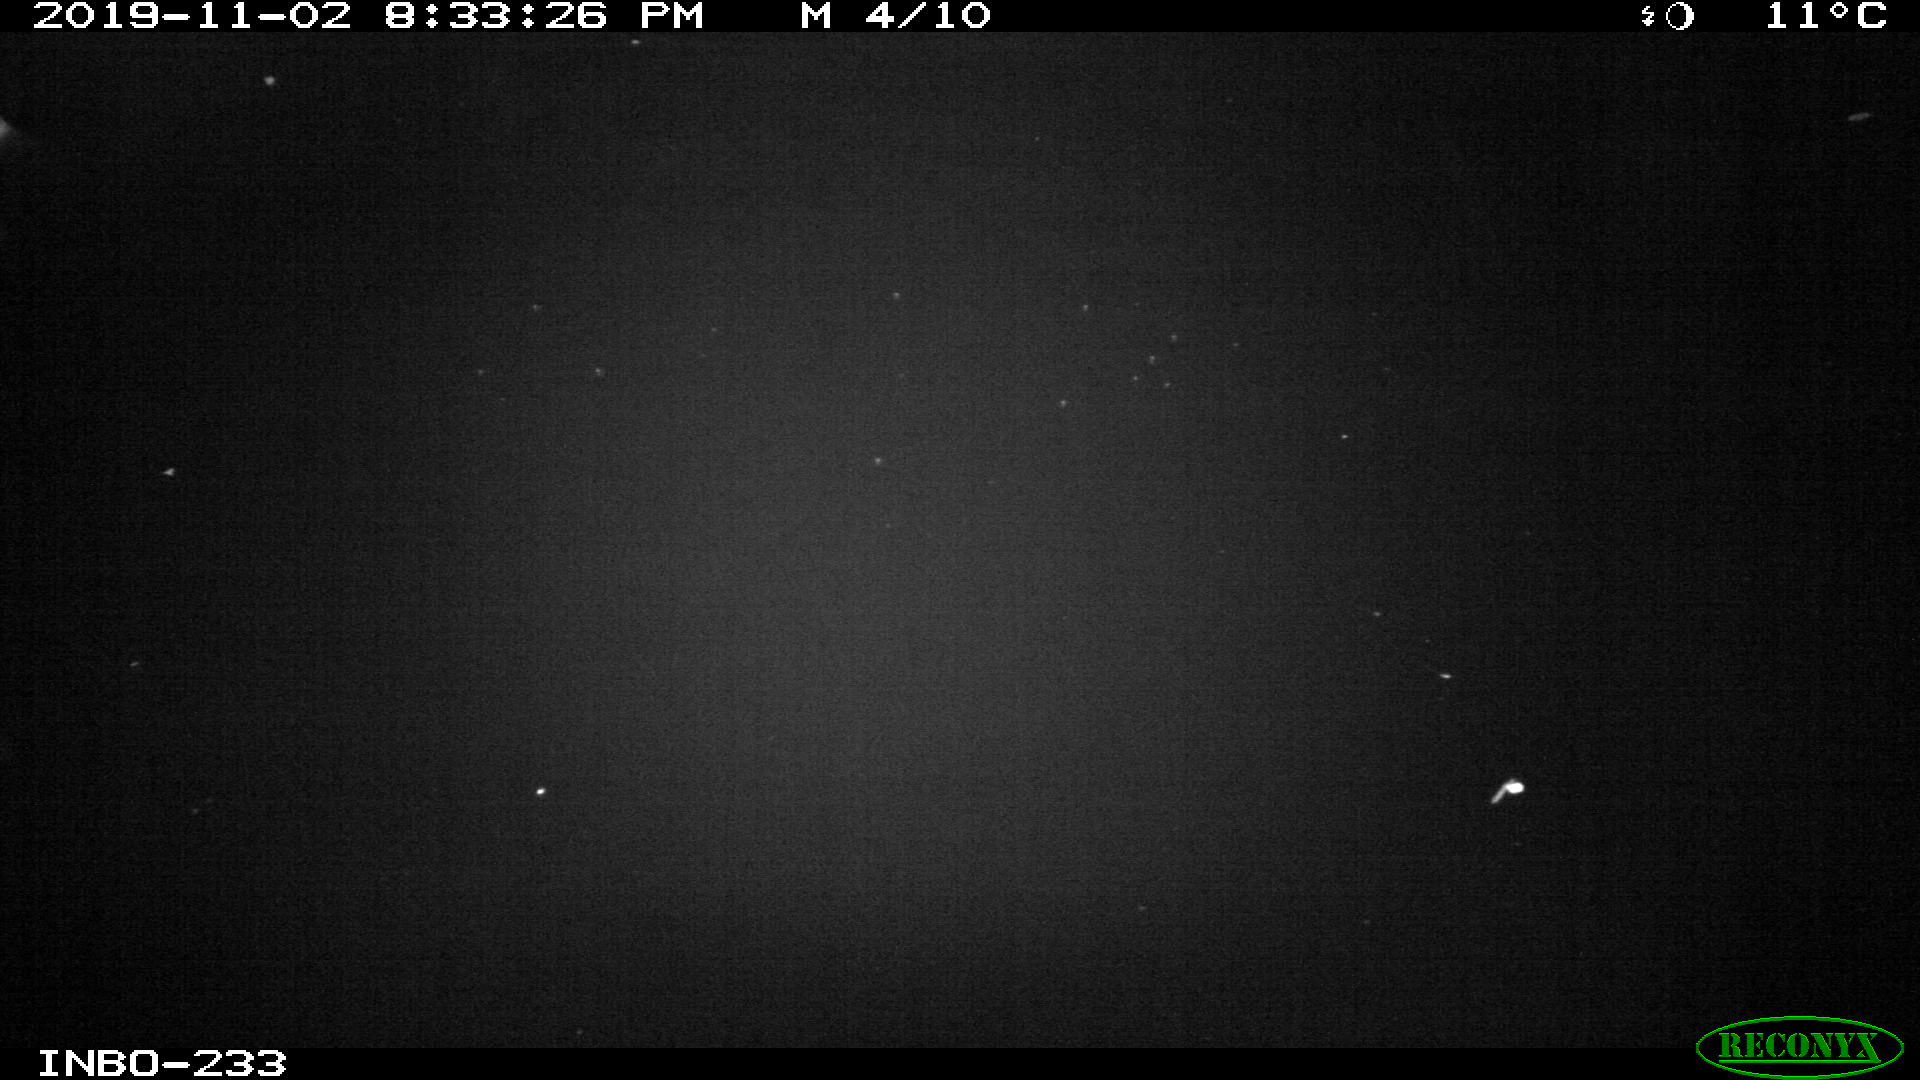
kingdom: Animalia
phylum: Chordata
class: Mammalia
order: Rodentia
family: Muridae
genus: Rattus
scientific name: Rattus norvegicus
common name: Brown rat
